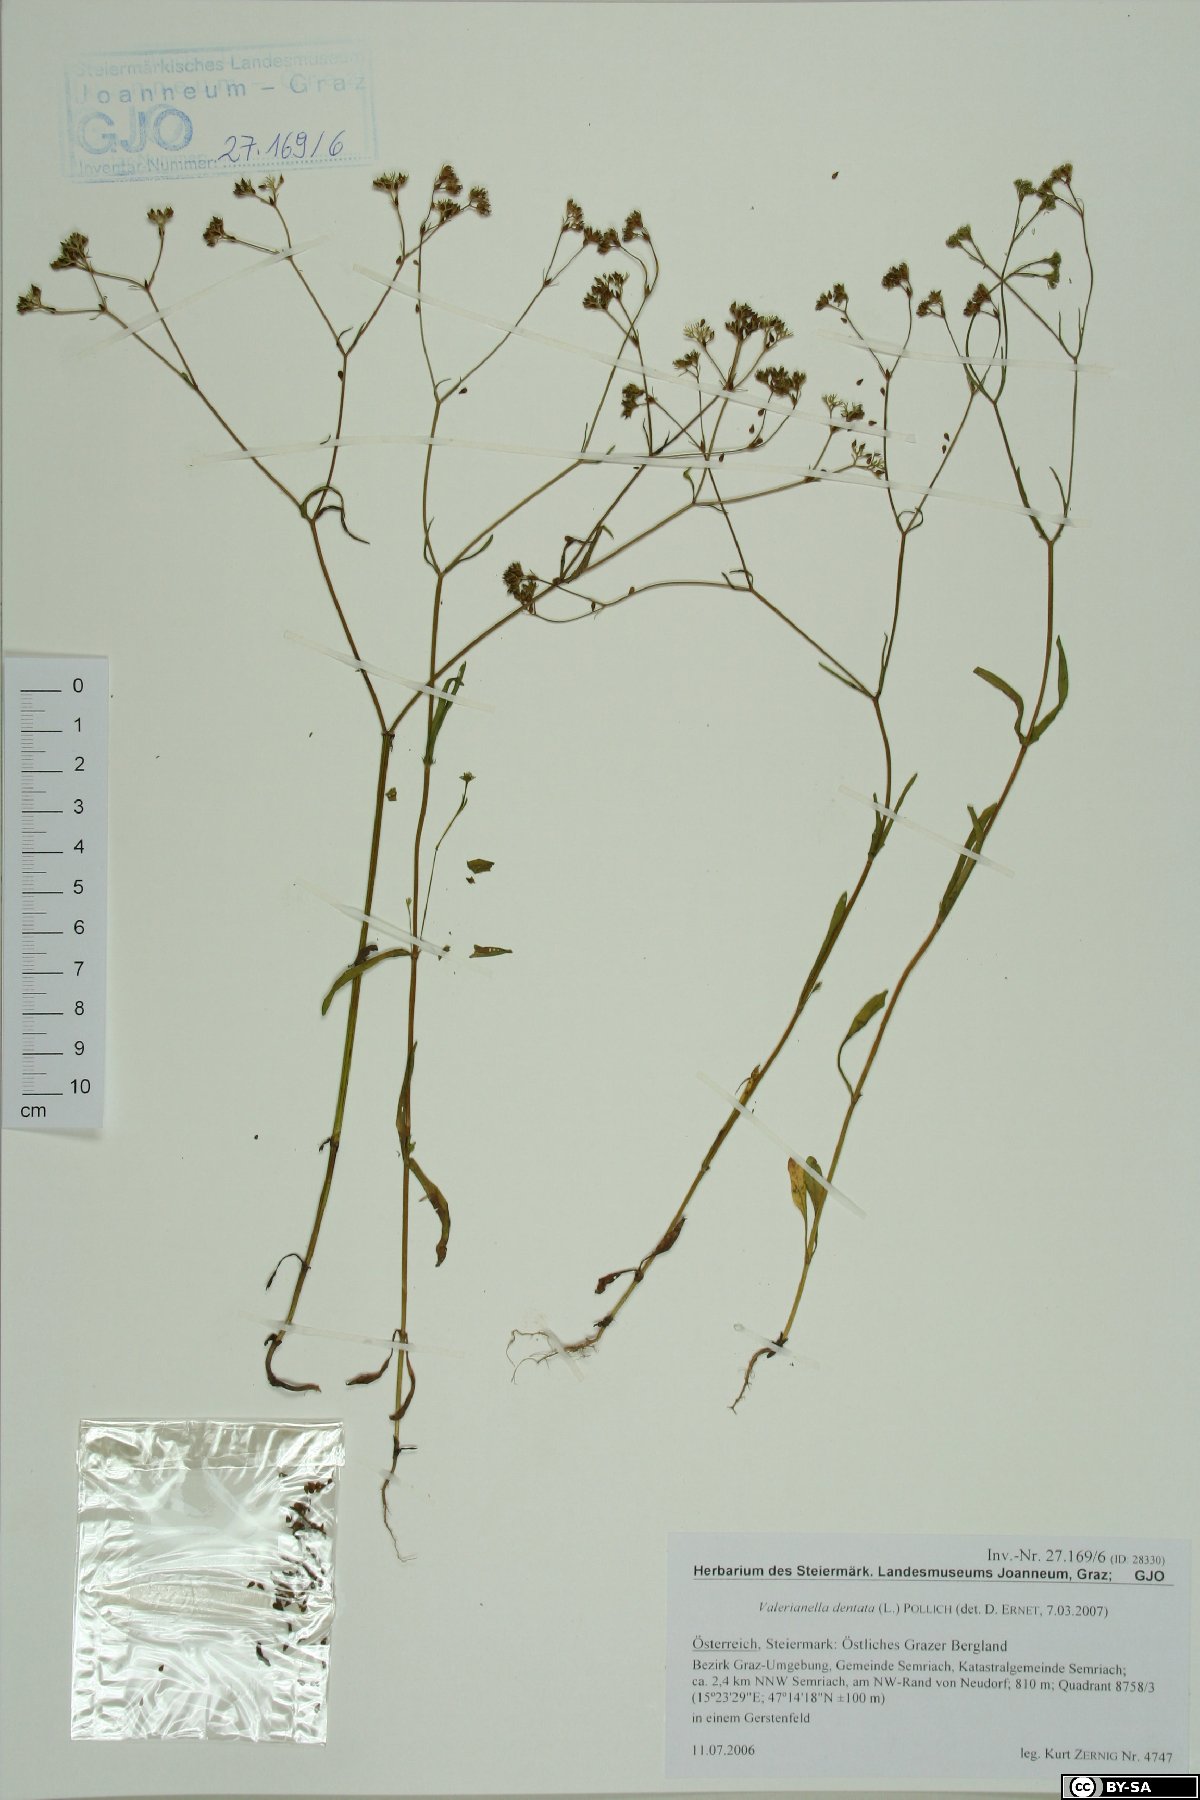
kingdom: Plantae
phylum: Tracheophyta
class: Magnoliopsida
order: Dipsacales
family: Caprifoliaceae
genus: Valerianella
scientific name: Valerianella dentata
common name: Narrow-fruited cornsalad
